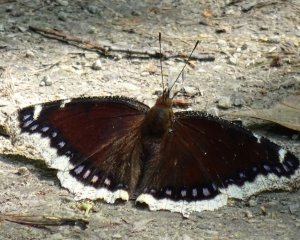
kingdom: Animalia
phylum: Arthropoda
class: Insecta
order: Lepidoptera
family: Nymphalidae
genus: Nymphalis
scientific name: Nymphalis antiopa
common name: Mourning Cloak
